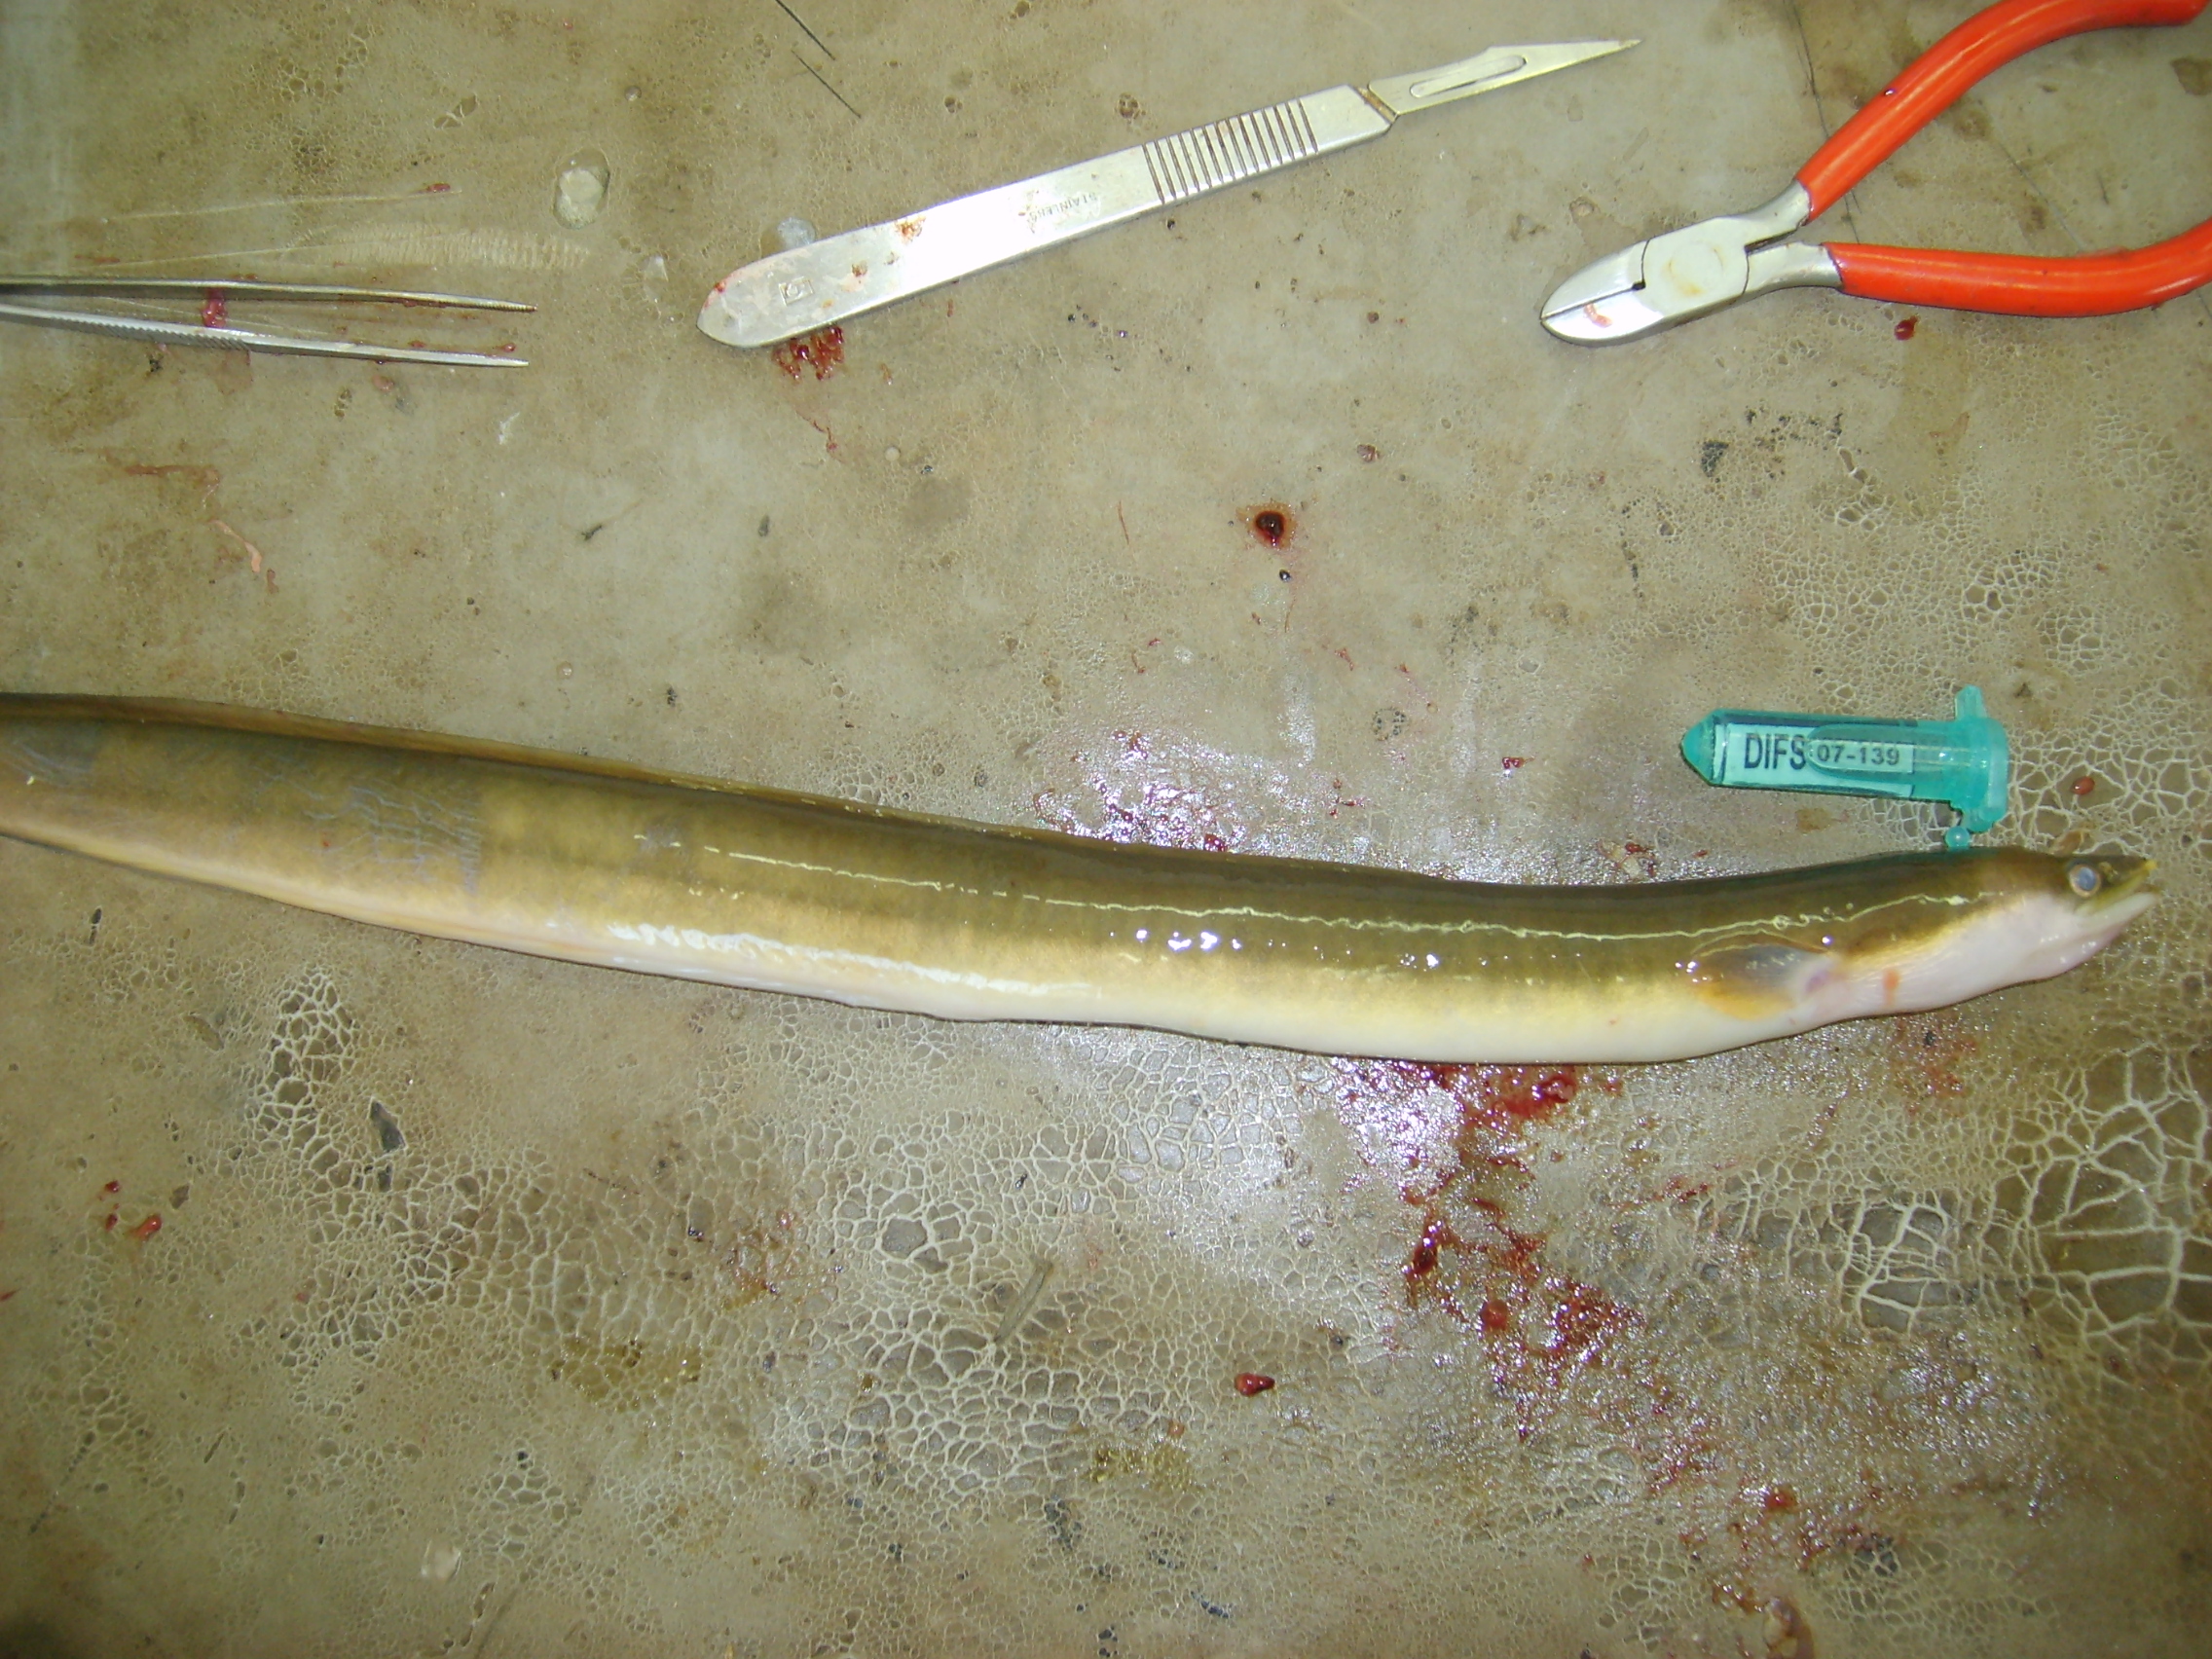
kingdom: Animalia
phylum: Chordata
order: Anguilliformes
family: Anguillidae
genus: Anguilla
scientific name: Anguilla mossambica
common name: African longfin eel
